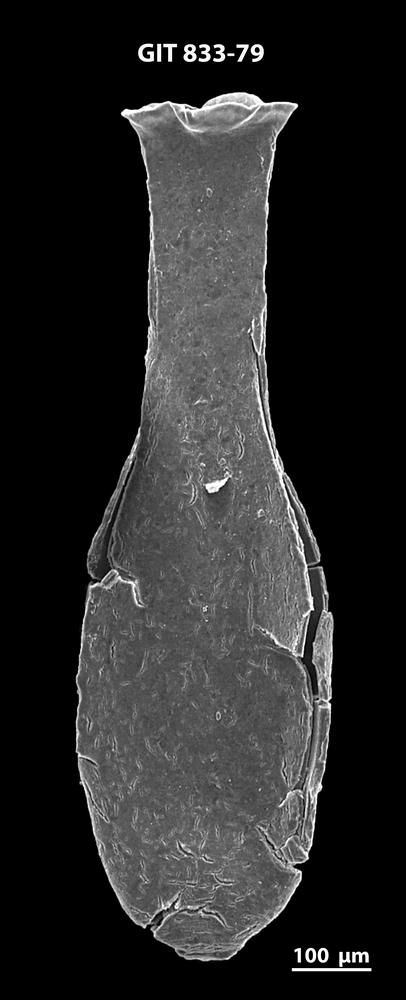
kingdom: Animalia
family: Lagenochitinidae
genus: Lagenochitina
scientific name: Lagenochitina megaesthonica
